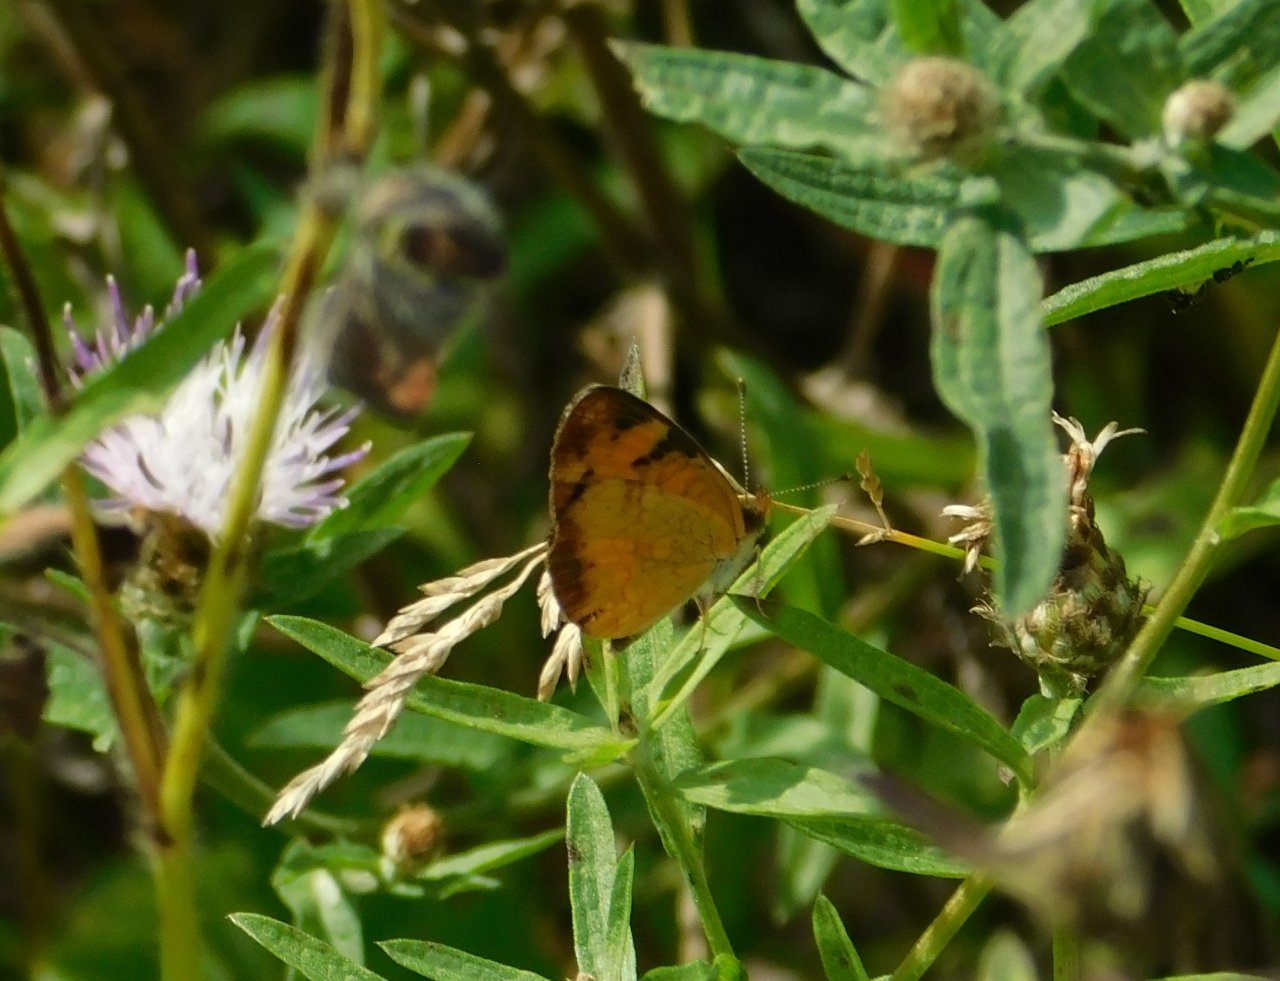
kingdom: Animalia
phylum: Arthropoda
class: Insecta
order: Lepidoptera
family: Nymphalidae
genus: Phyciodes
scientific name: Phyciodes tharos
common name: Northern Crescent
